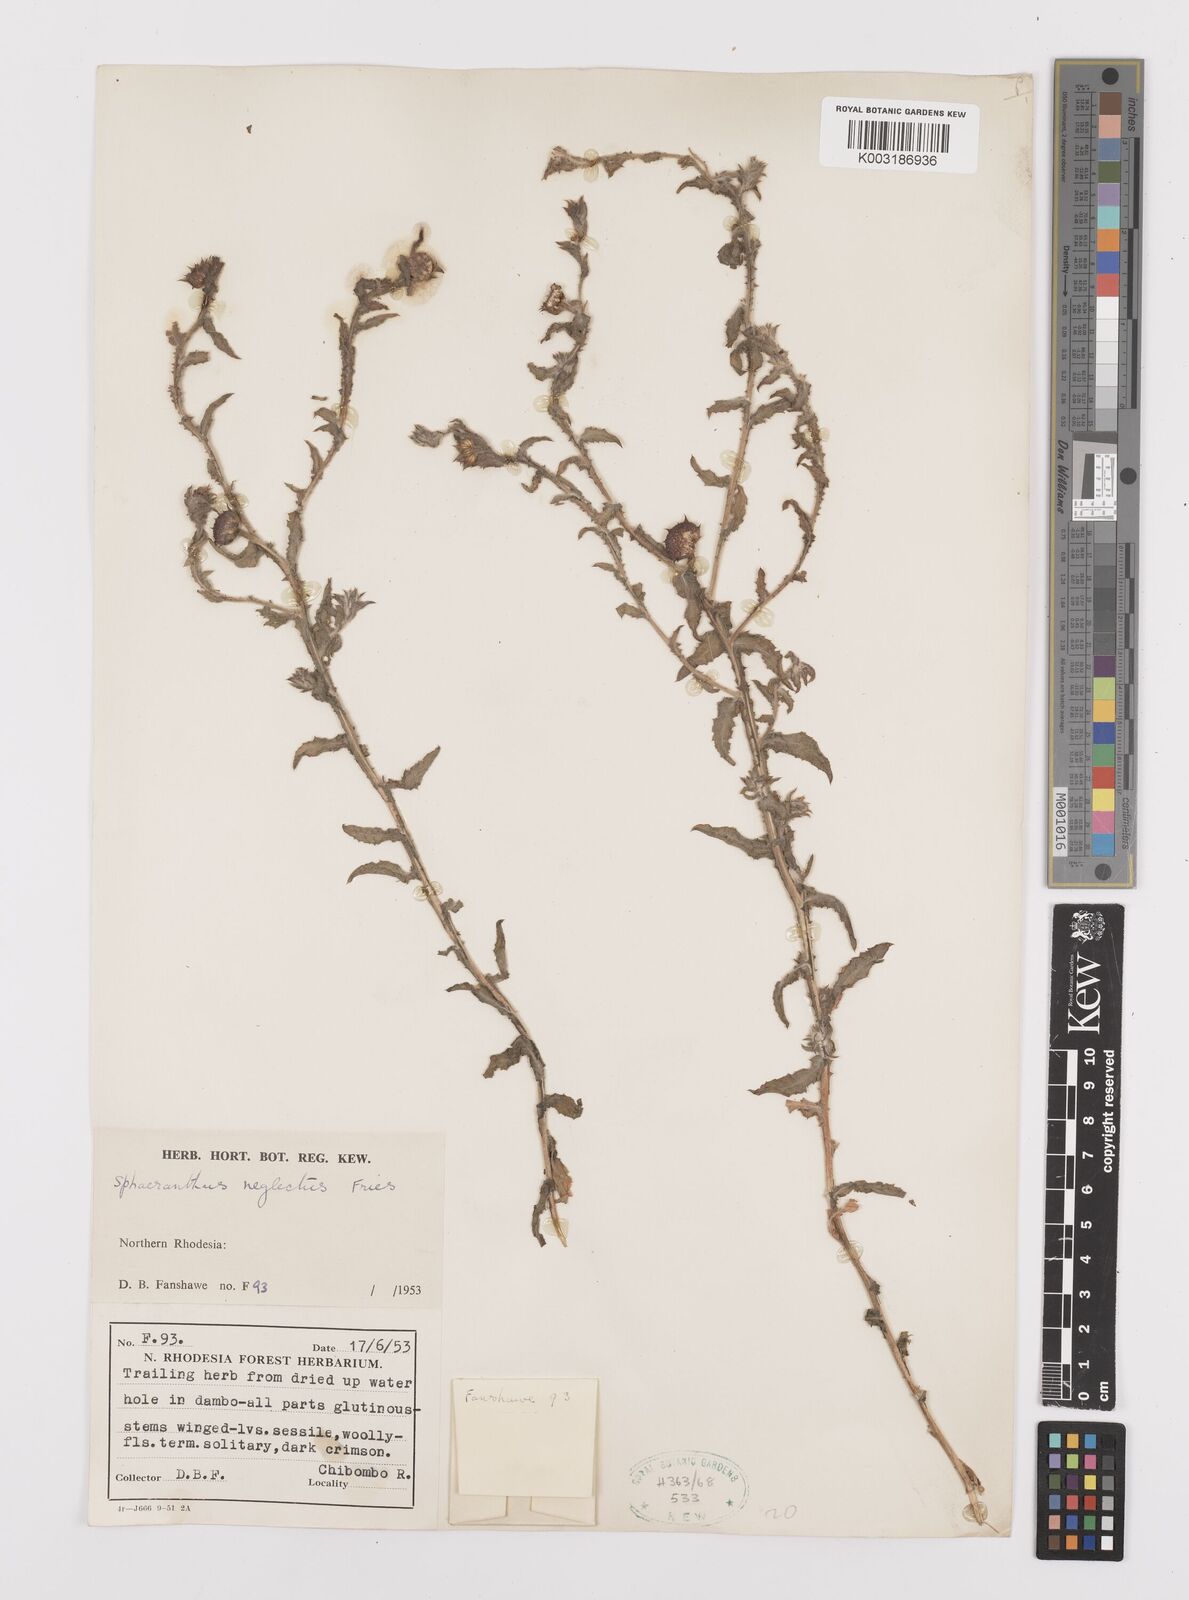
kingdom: Plantae
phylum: Tracheophyta
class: Magnoliopsida
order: Asterales
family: Asteraceae
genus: Sphaeranthus
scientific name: Sphaeranthus neglectus
